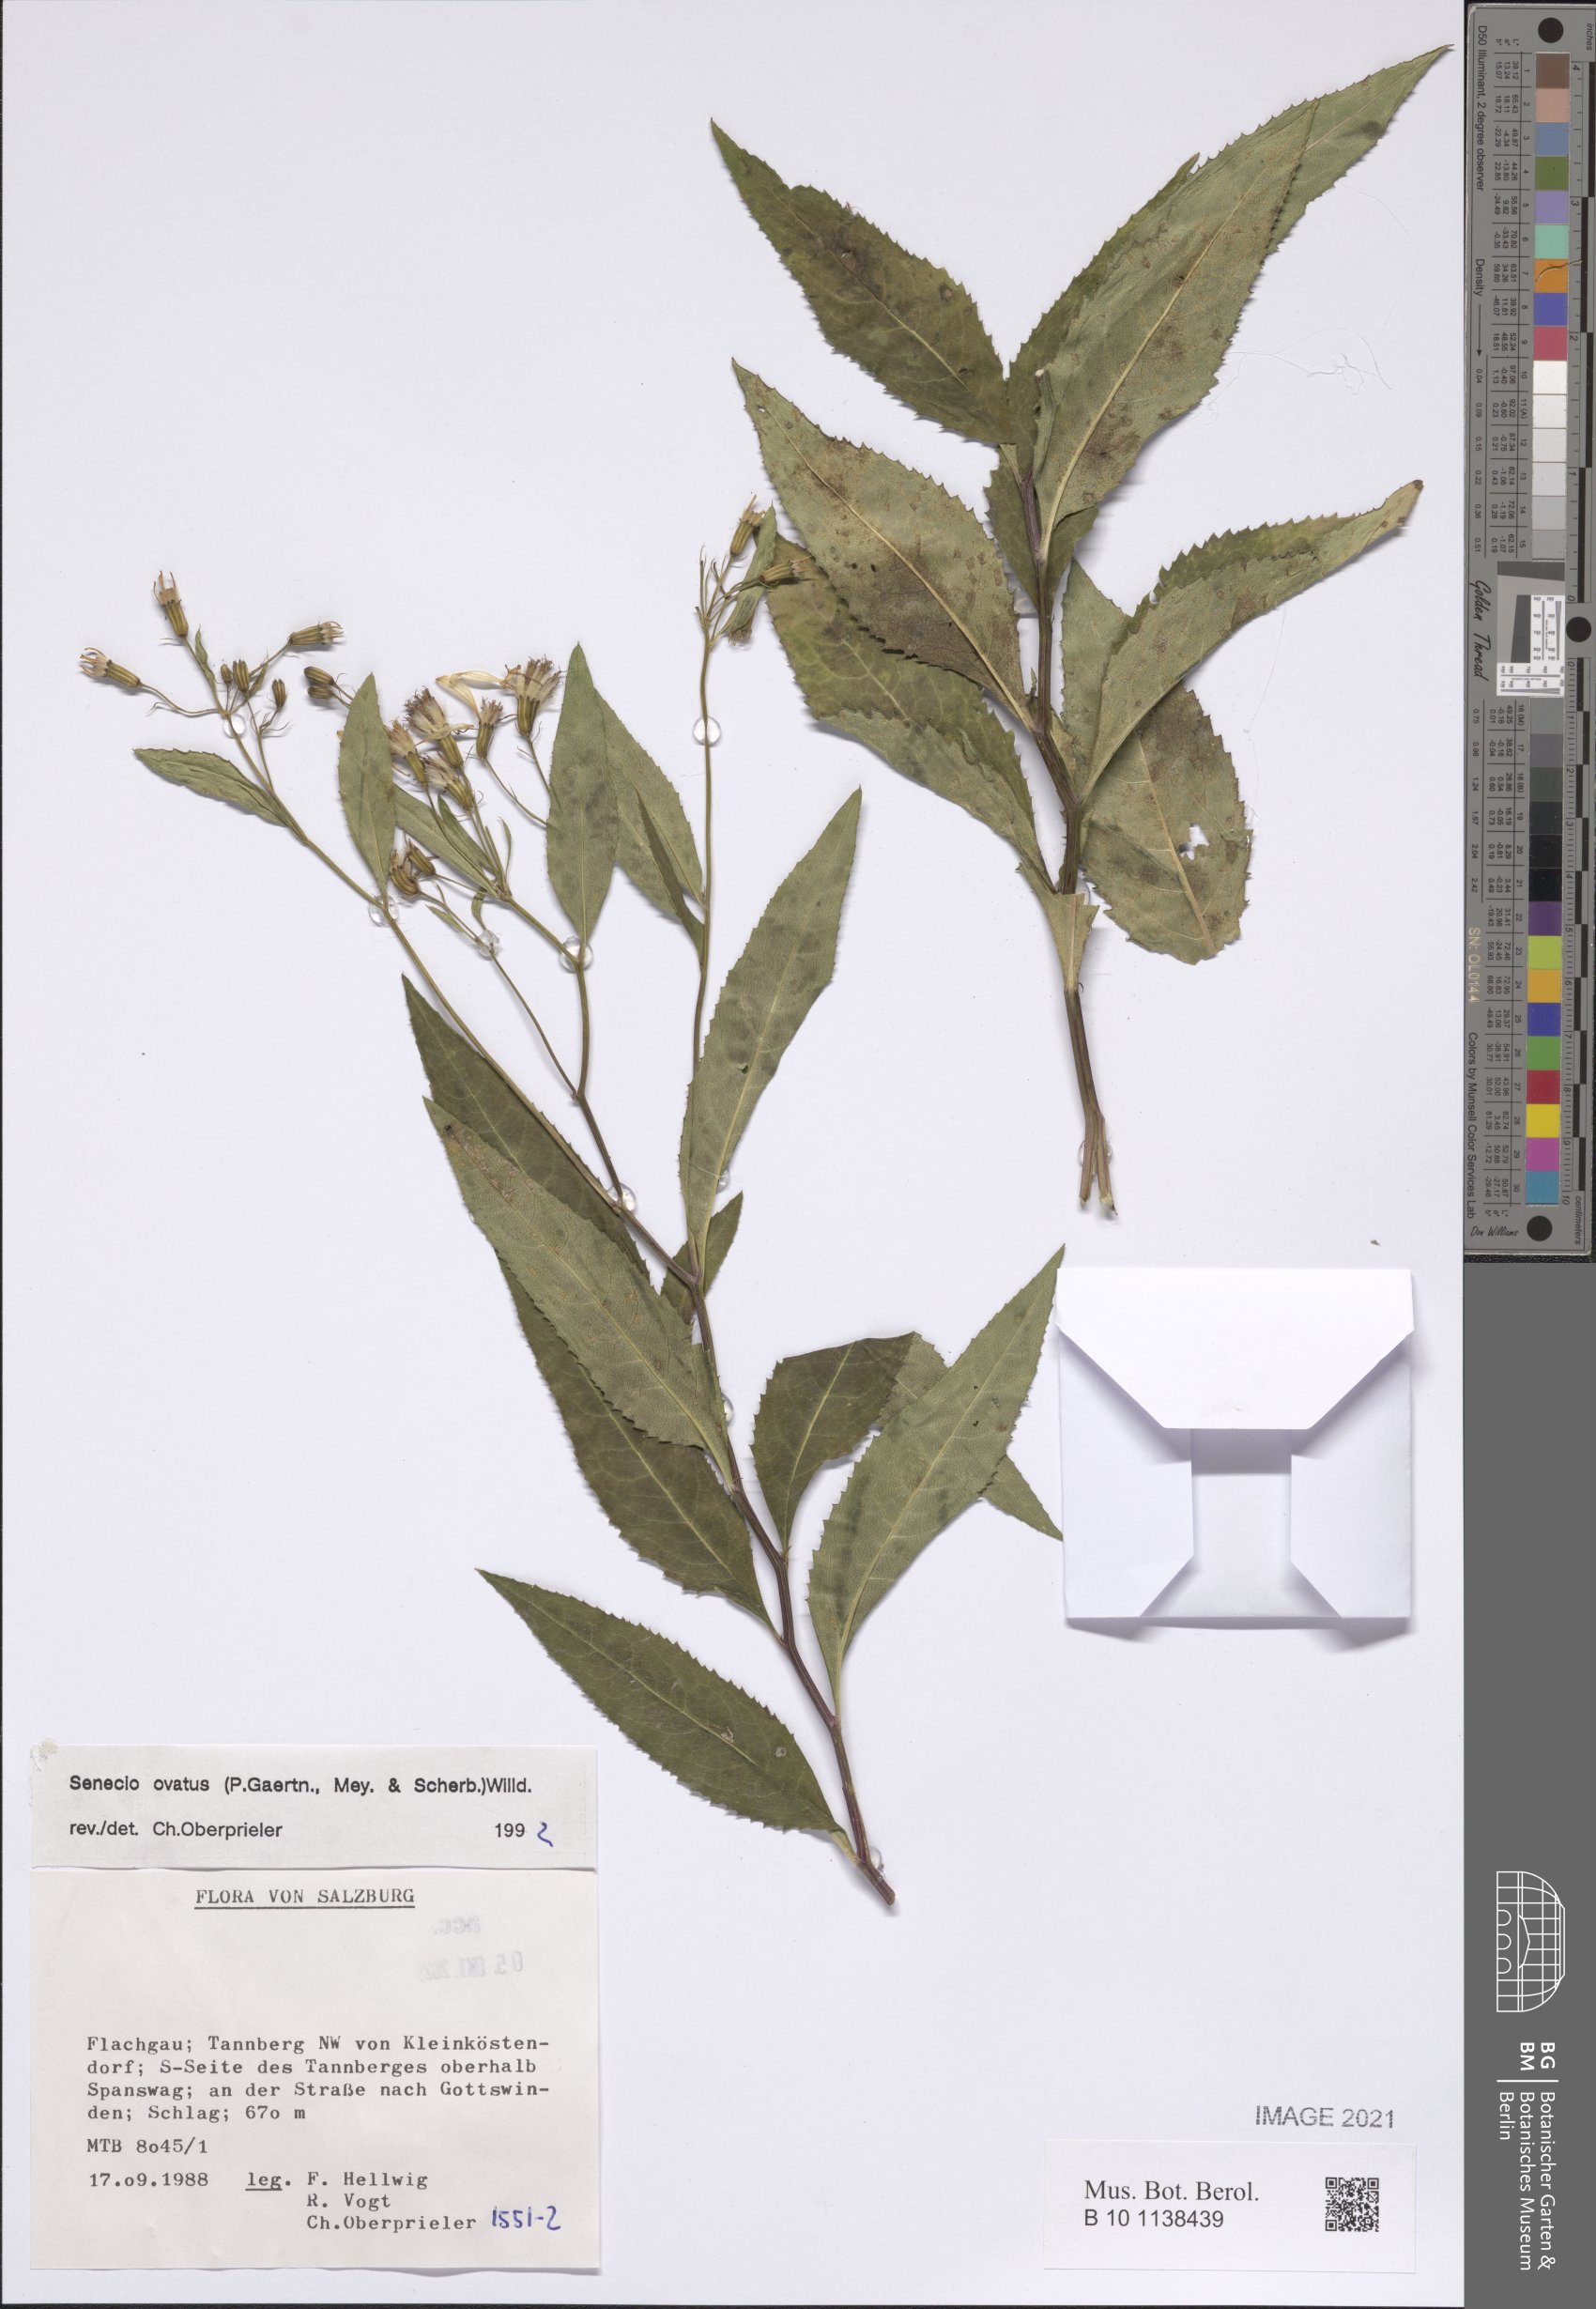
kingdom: Plantae
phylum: Tracheophyta
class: Magnoliopsida
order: Asterales
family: Asteraceae
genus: Senecio
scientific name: Senecio ovatus
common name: Wood ragwort
